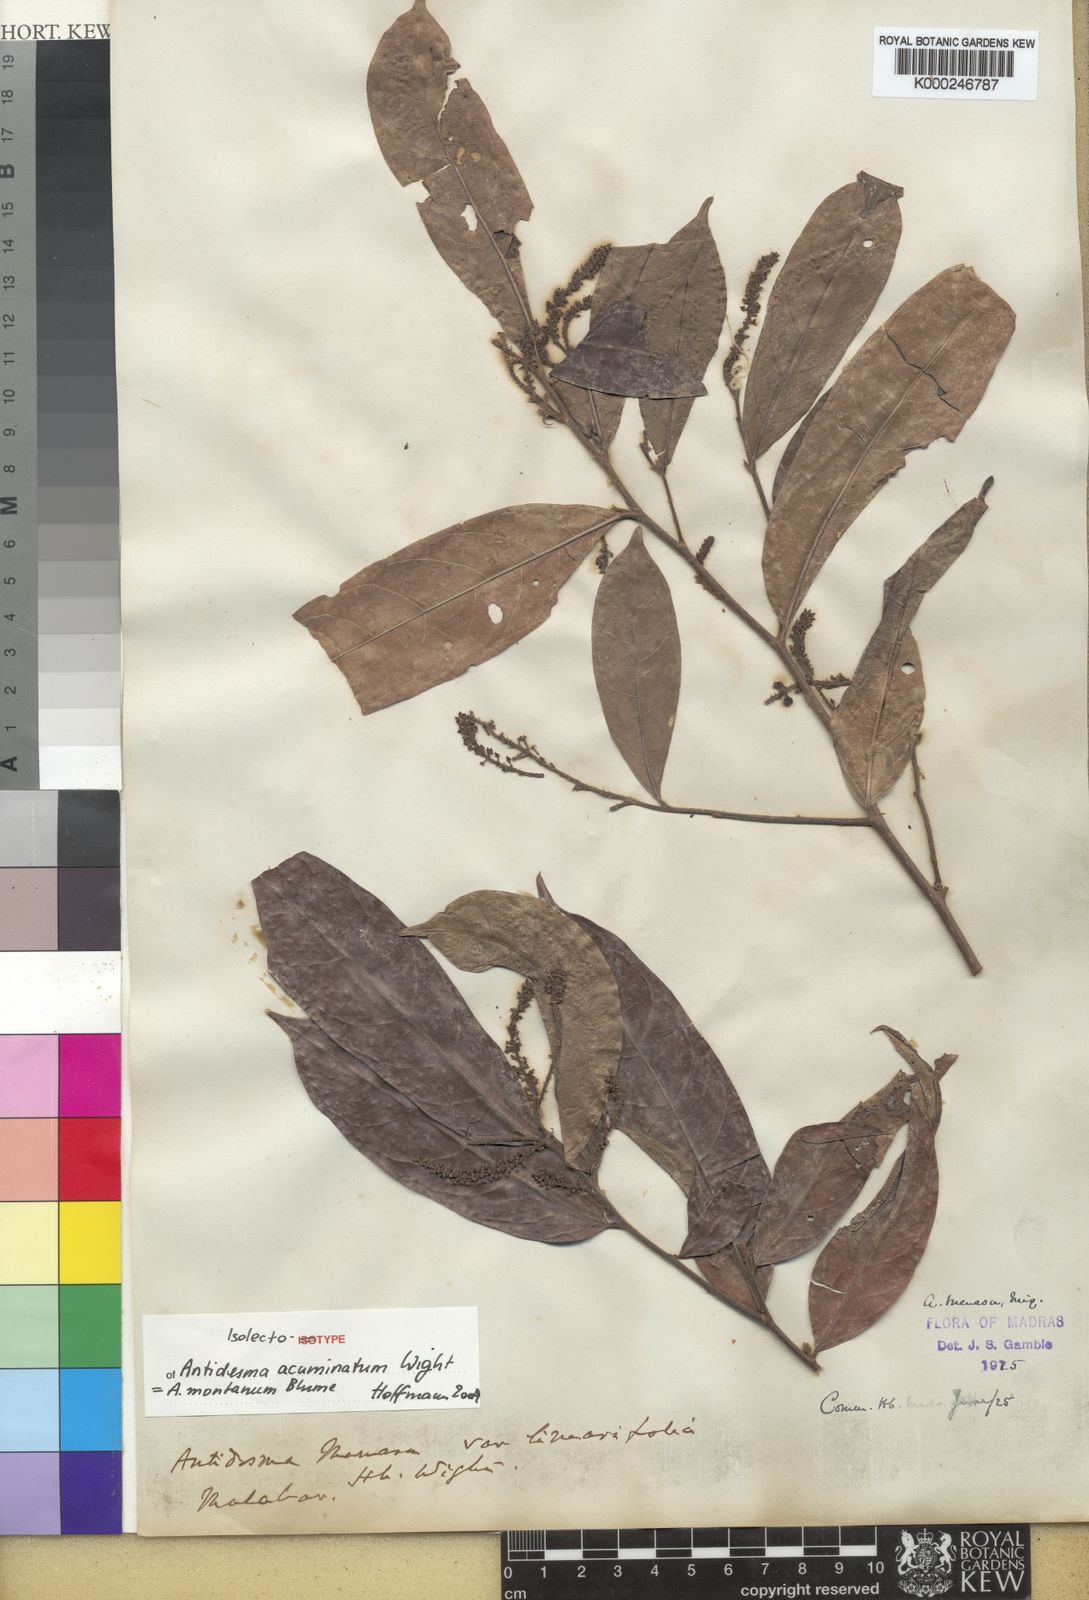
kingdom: Plantae
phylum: Tracheophyta
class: Magnoliopsida
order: Malpighiales
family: Phyllanthaceae
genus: Antidesma
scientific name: Antidesma montanum
